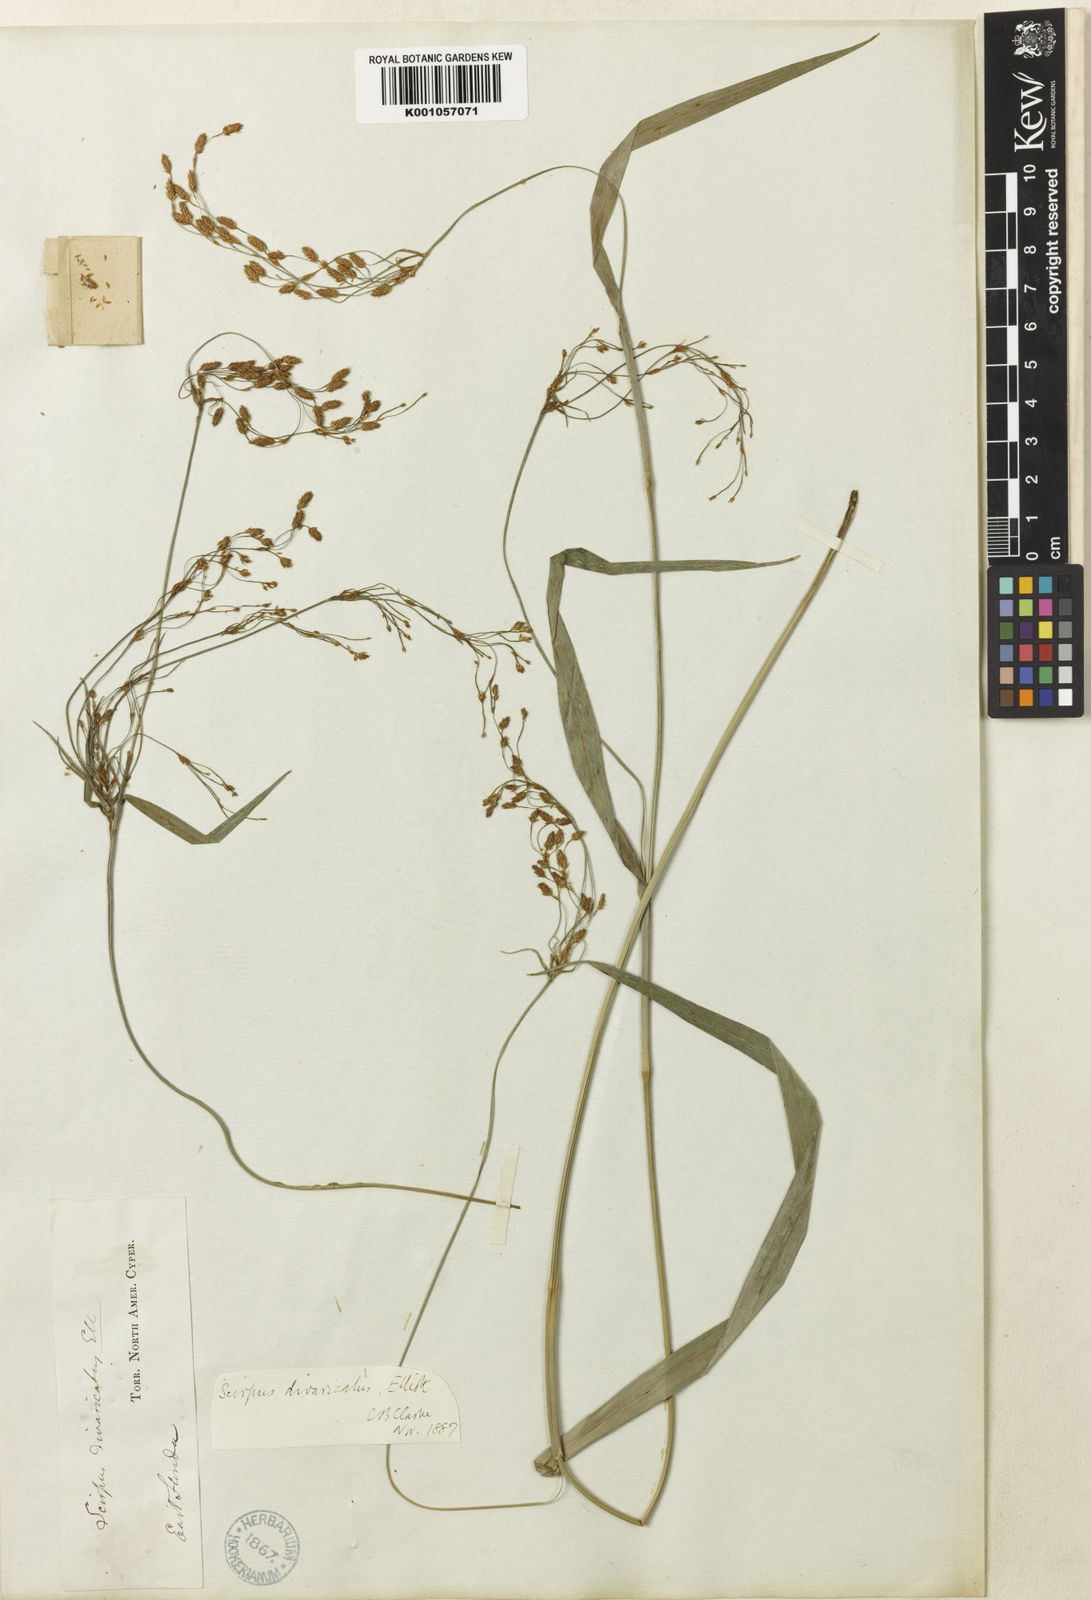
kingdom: Plantae
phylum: Tracheophyta
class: Liliopsida
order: Poales
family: Cyperaceae
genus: Scirpus
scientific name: Scirpus divaricatus
